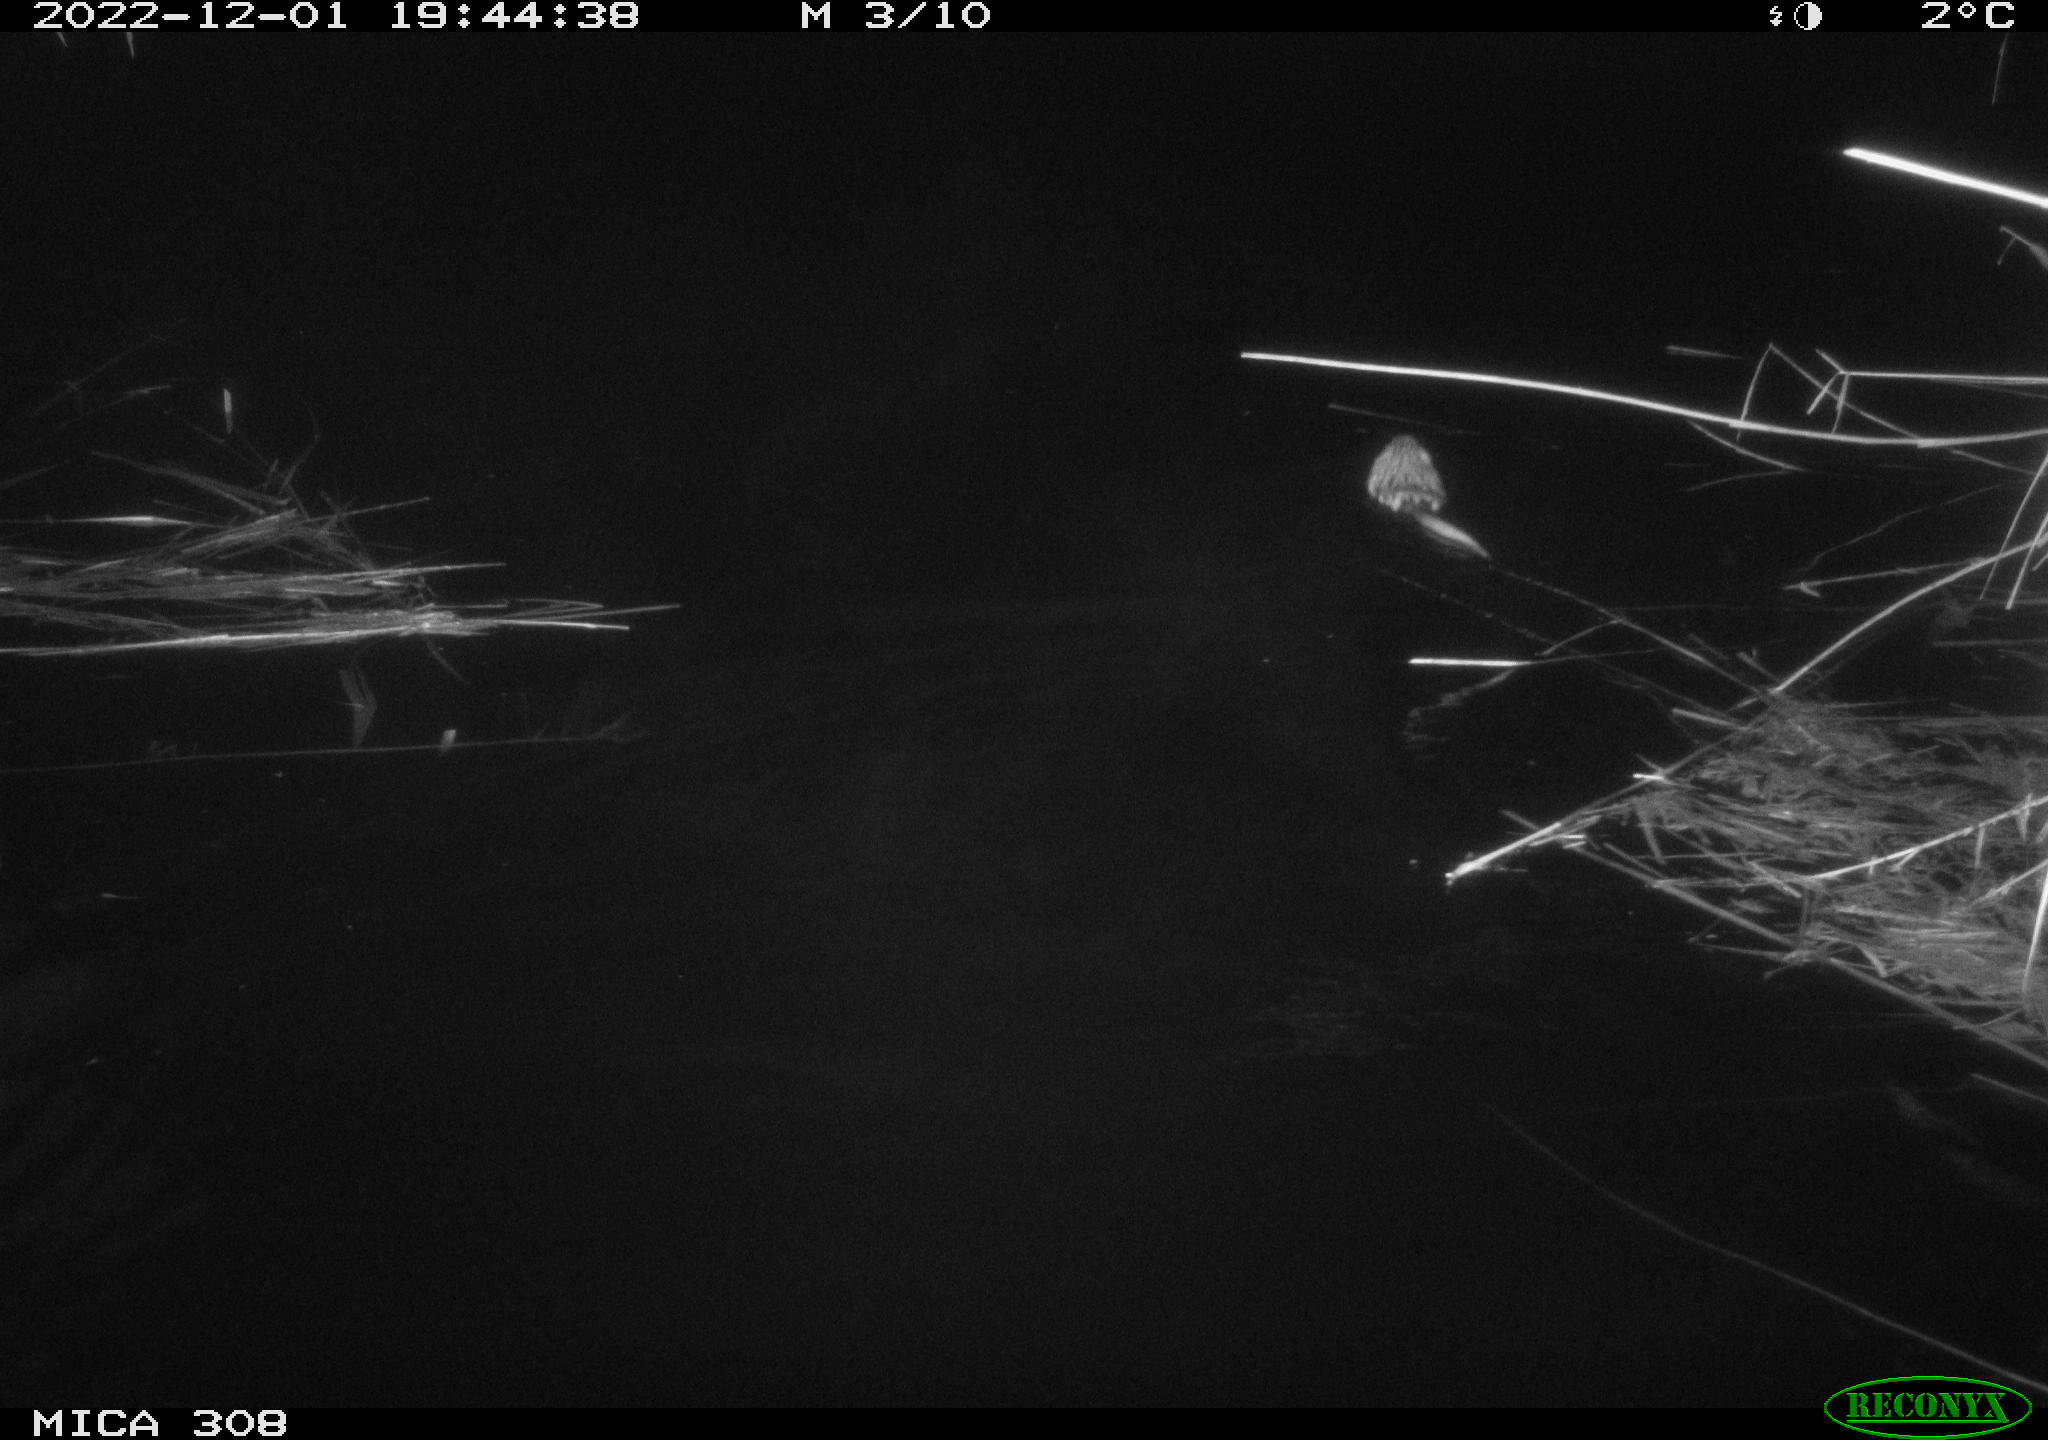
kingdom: Animalia
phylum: Chordata
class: Mammalia
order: Rodentia
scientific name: Rodentia
